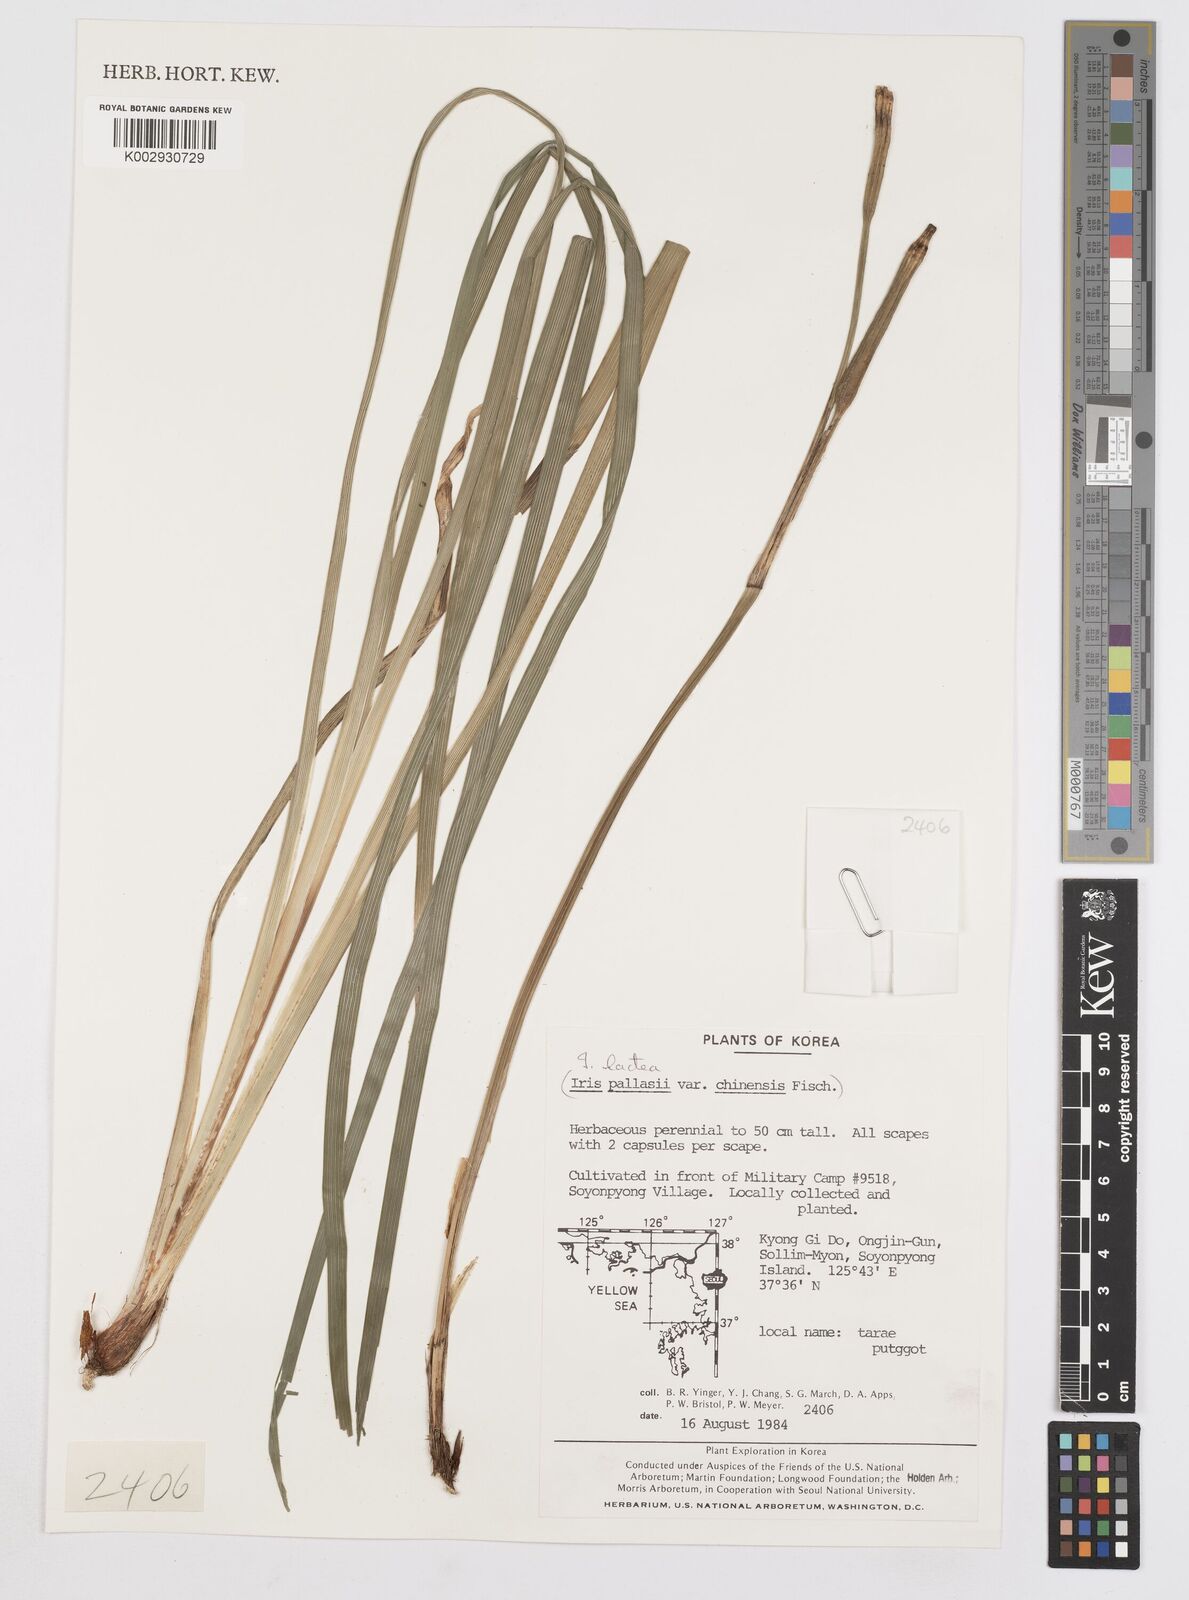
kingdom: Plantae
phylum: Tracheophyta
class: Liliopsida
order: Asparagales
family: Iridaceae
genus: Iris
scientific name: Iris lactea
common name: White-flower chinese iris
